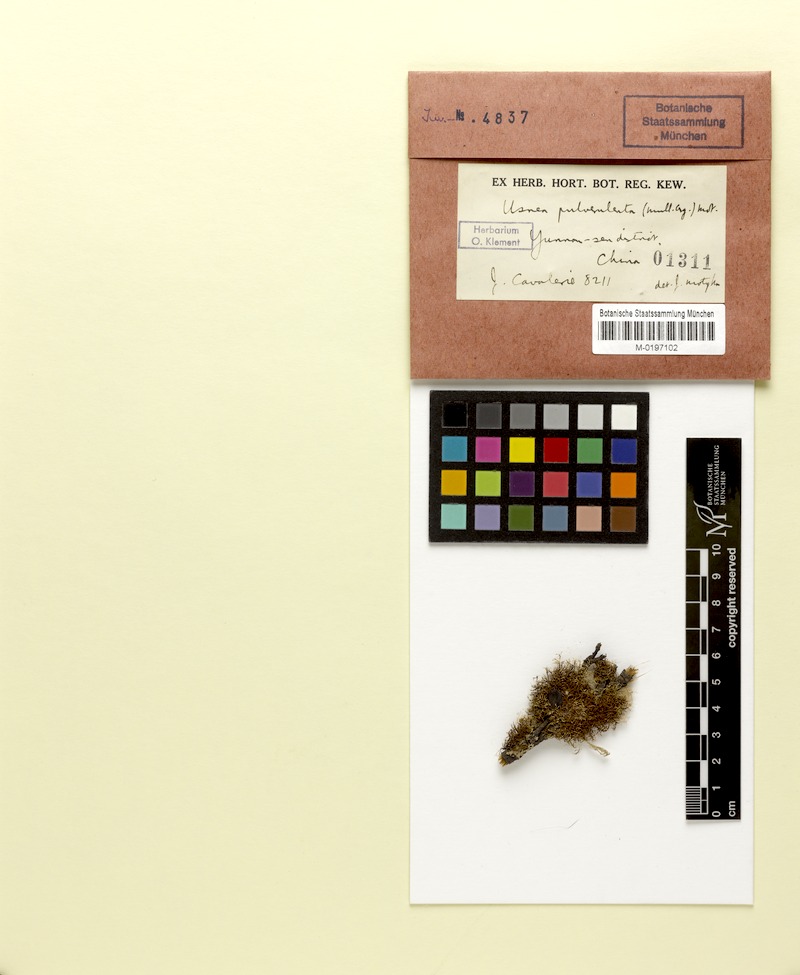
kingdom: Fungi
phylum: Ascomycota
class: Lecanoromycetes
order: Lecanorales
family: Parmeliaceae
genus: Usnea
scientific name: Usnea
